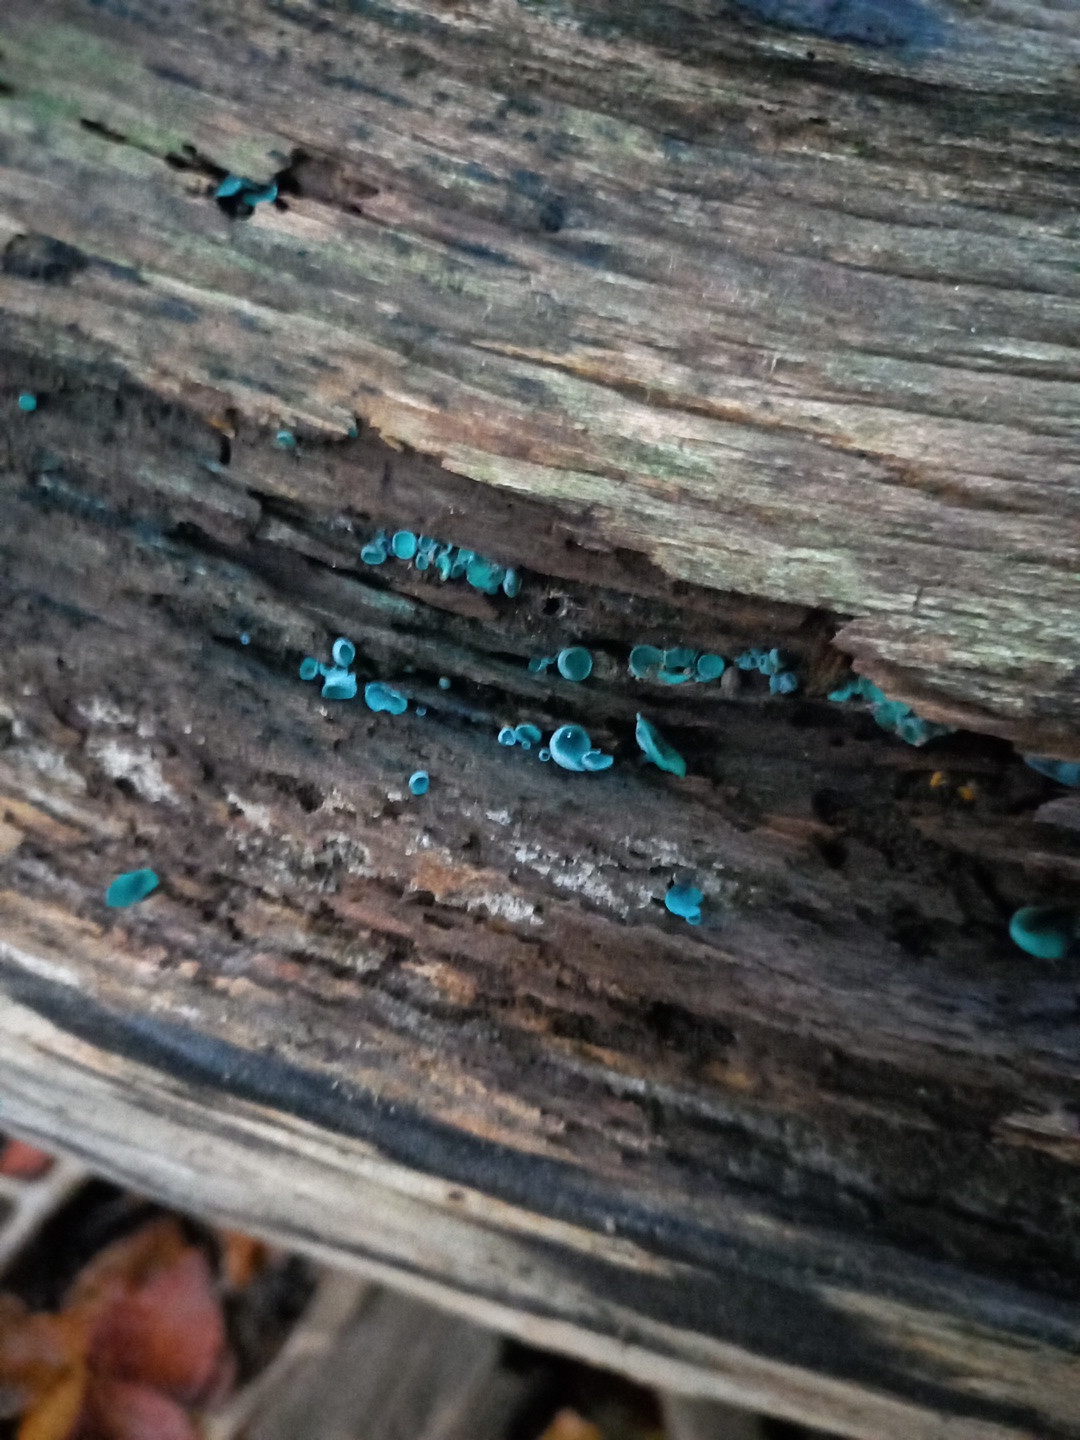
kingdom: Fungi
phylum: Ascomycota
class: Leotiomycetes
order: Helotiales
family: Chlorociboriaceae
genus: Chlorociboria
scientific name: Chlorociboria aeruginascens
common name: almindelig grønskive
